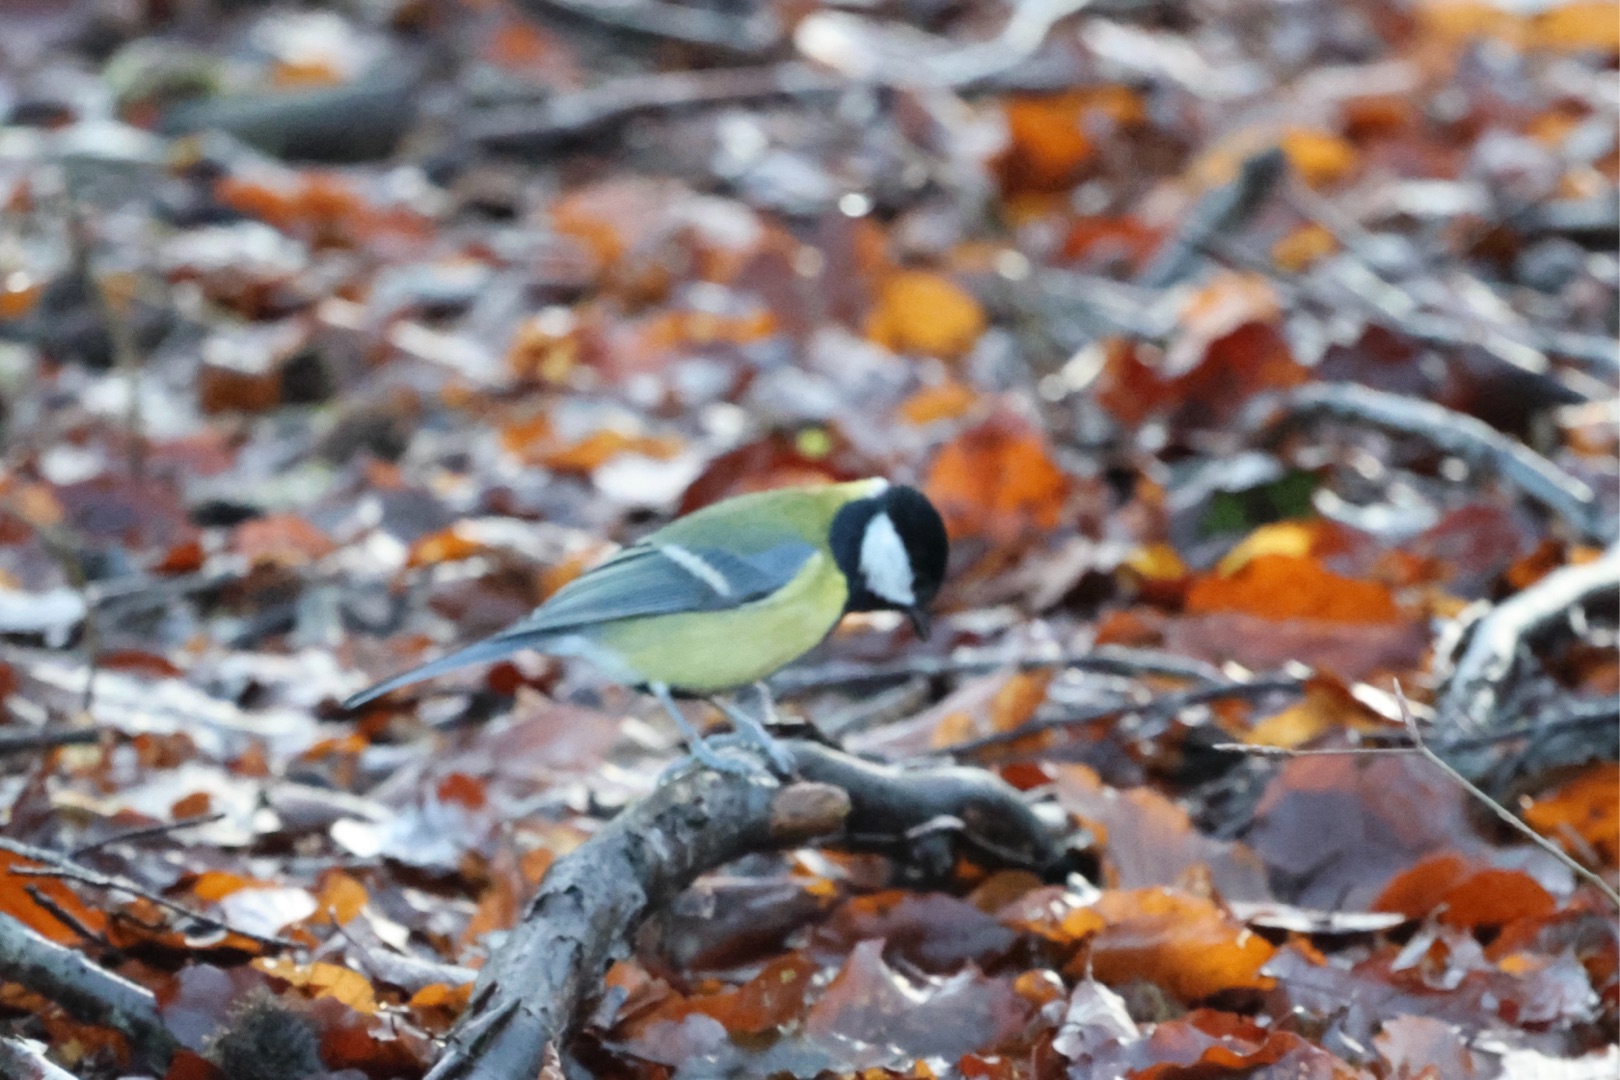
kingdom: Animalia
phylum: Chordata
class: Aves
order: Passeriformes
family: Paridae
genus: Parus
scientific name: Parus major
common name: Musvit
